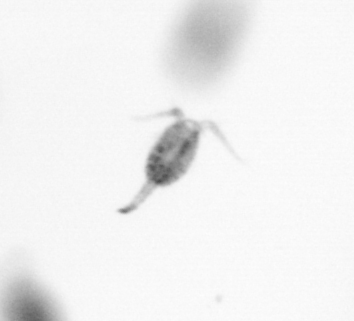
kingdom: Animalia
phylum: Arthropoda
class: Copepoda
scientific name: Copepoda
